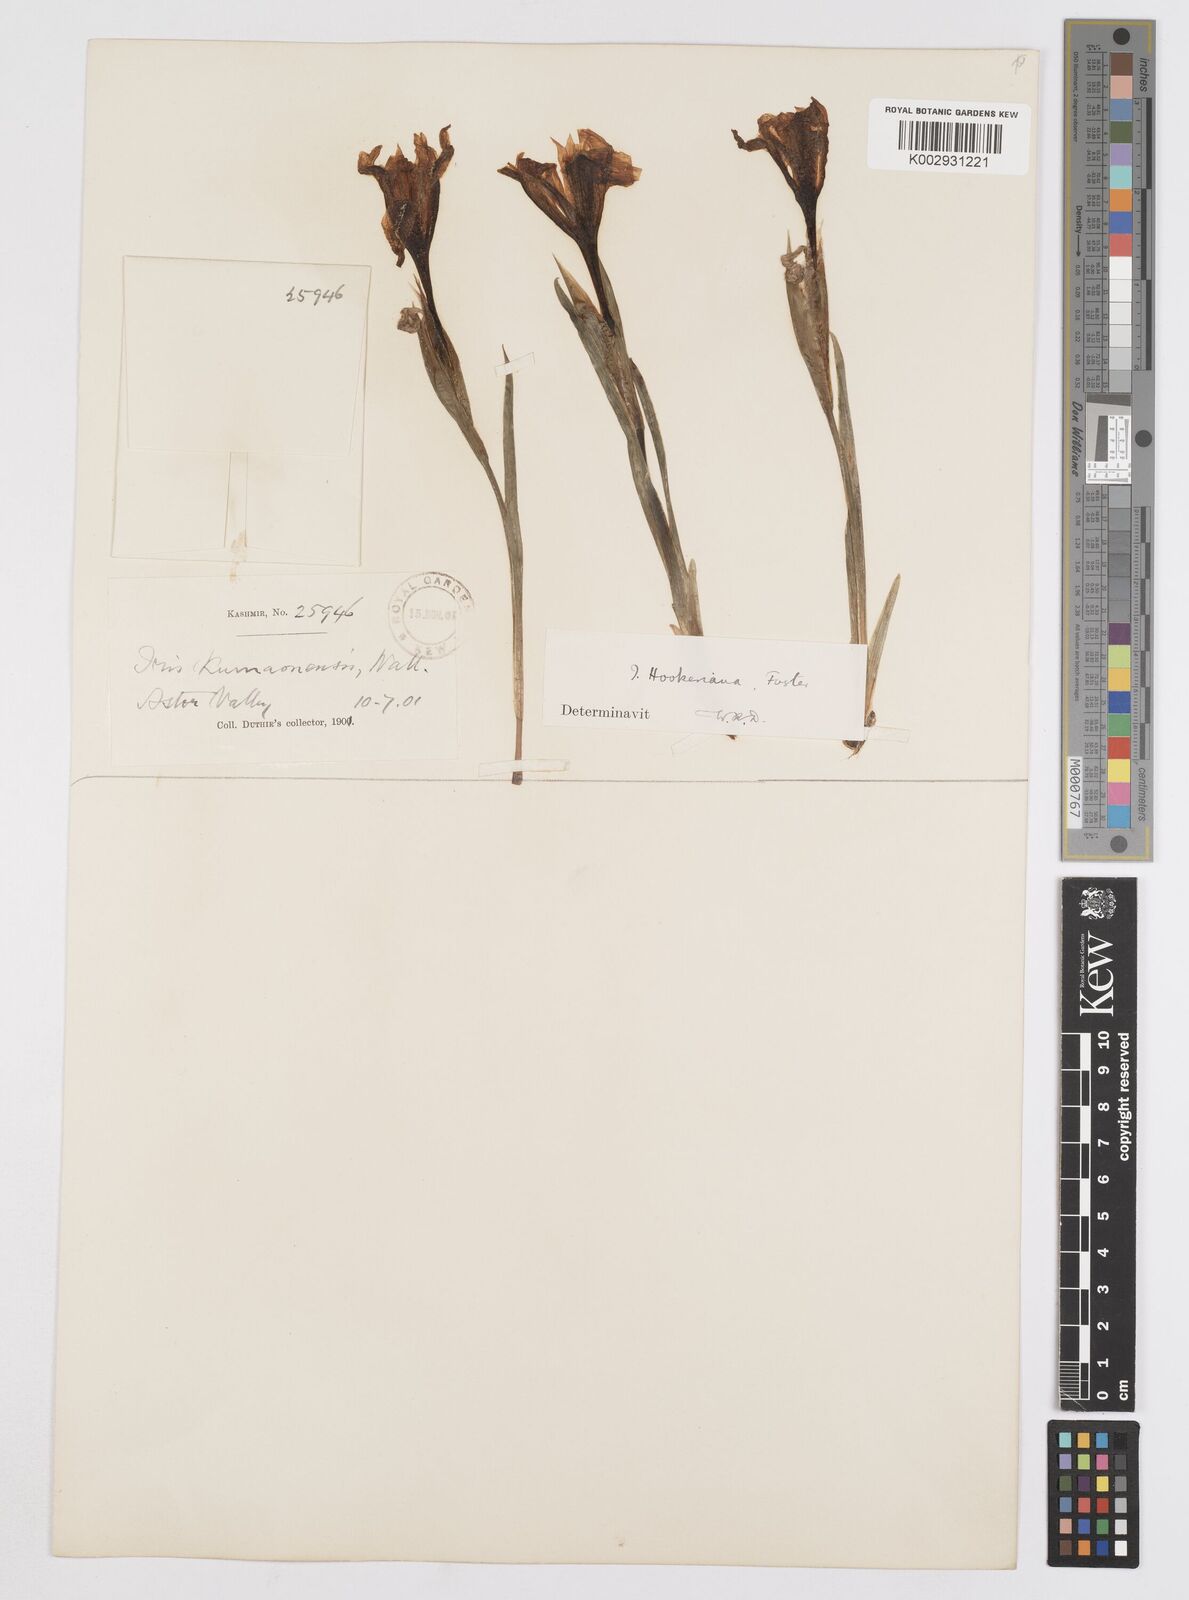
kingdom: Plantae
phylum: Tracheophyta
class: Liliopsida
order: Asparagales
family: Iridaceae
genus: Iris
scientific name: Iris hookeriana
